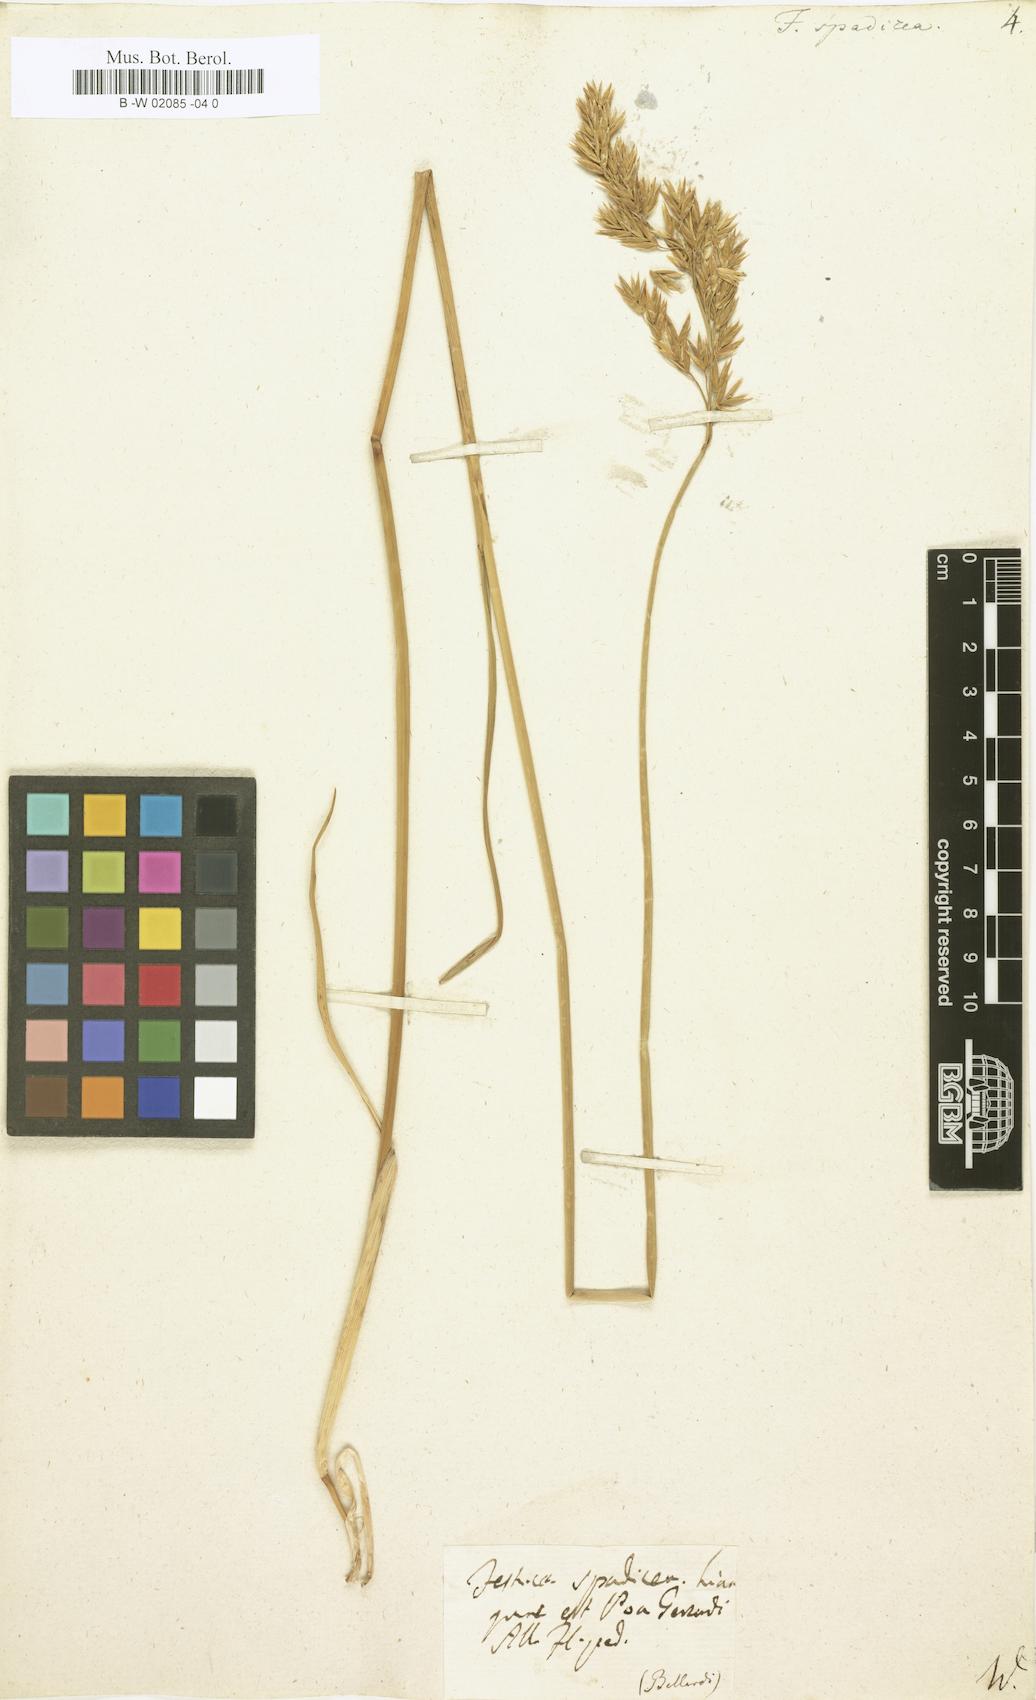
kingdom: Plantae
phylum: Tracheophyta
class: Liliopsida
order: Poales
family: Poaceae
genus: Festuca
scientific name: Festuca spadicea
